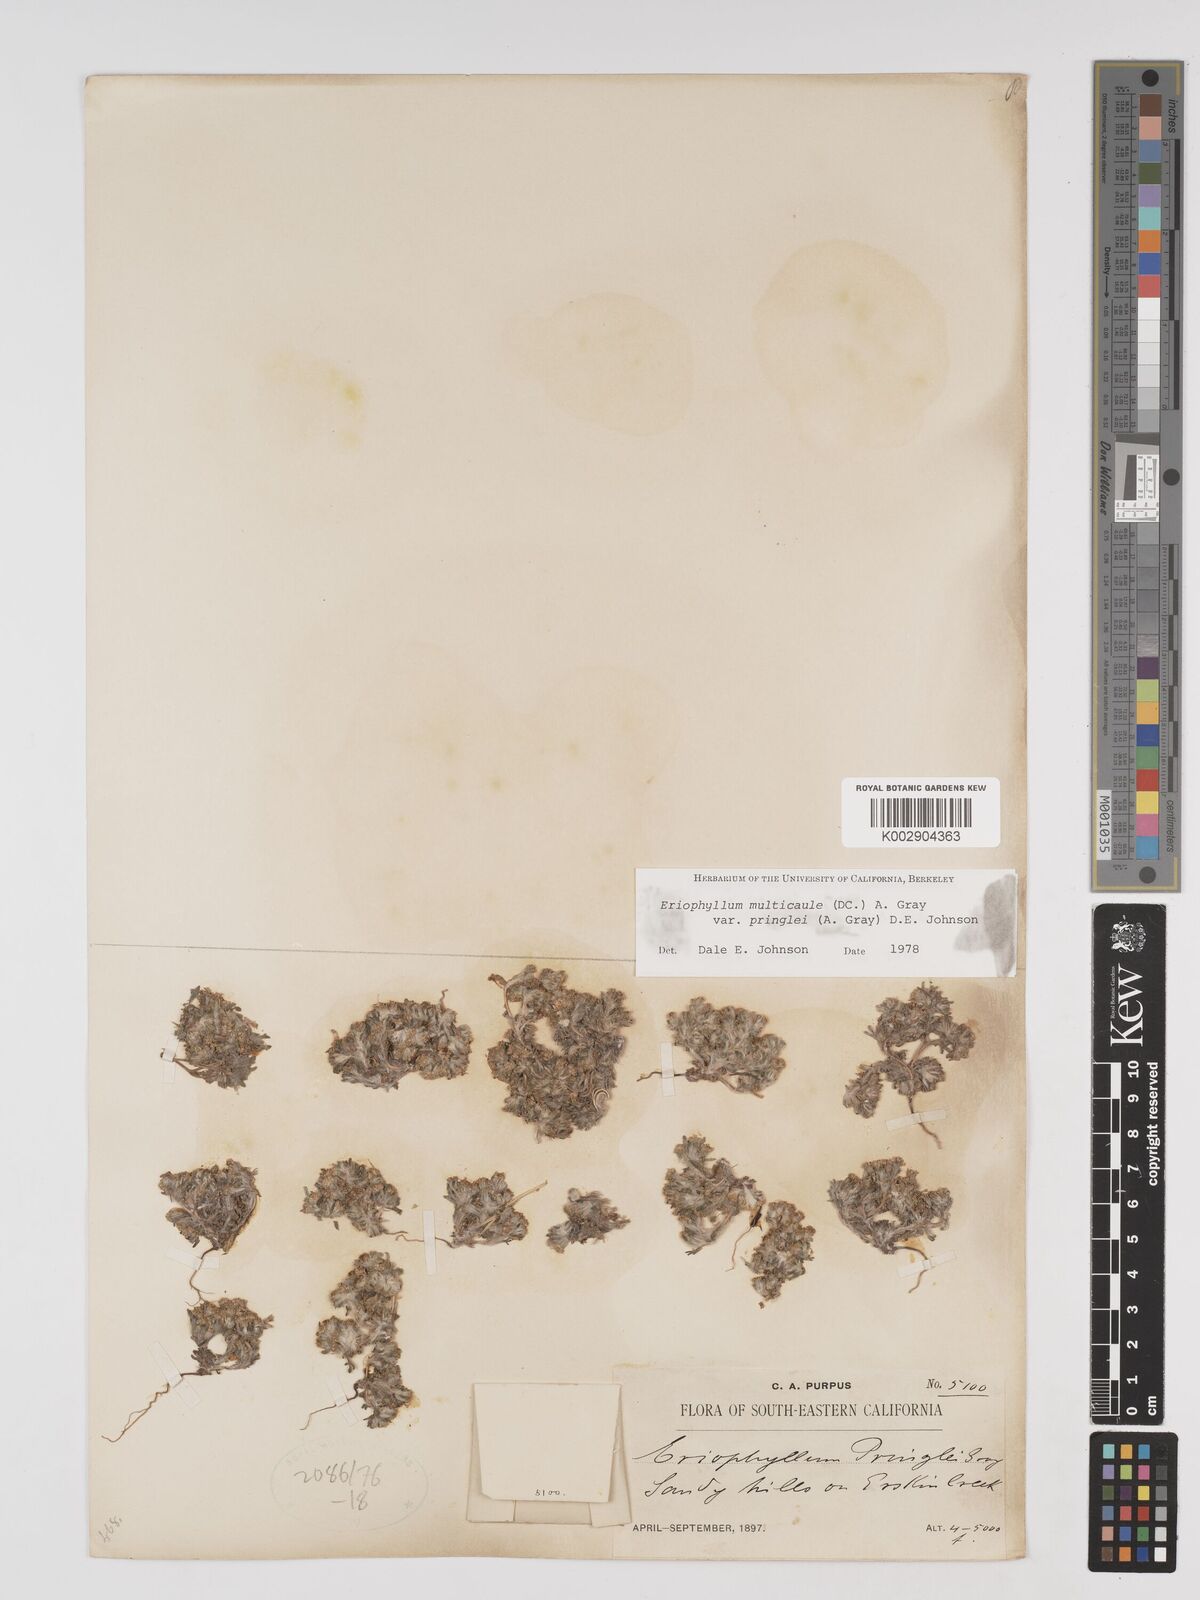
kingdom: Plantae
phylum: Tracheophyta
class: Magnoliopsida
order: Asterales
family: Asteraceae
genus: Eriophyllum
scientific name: Eriophyllum multicaule
